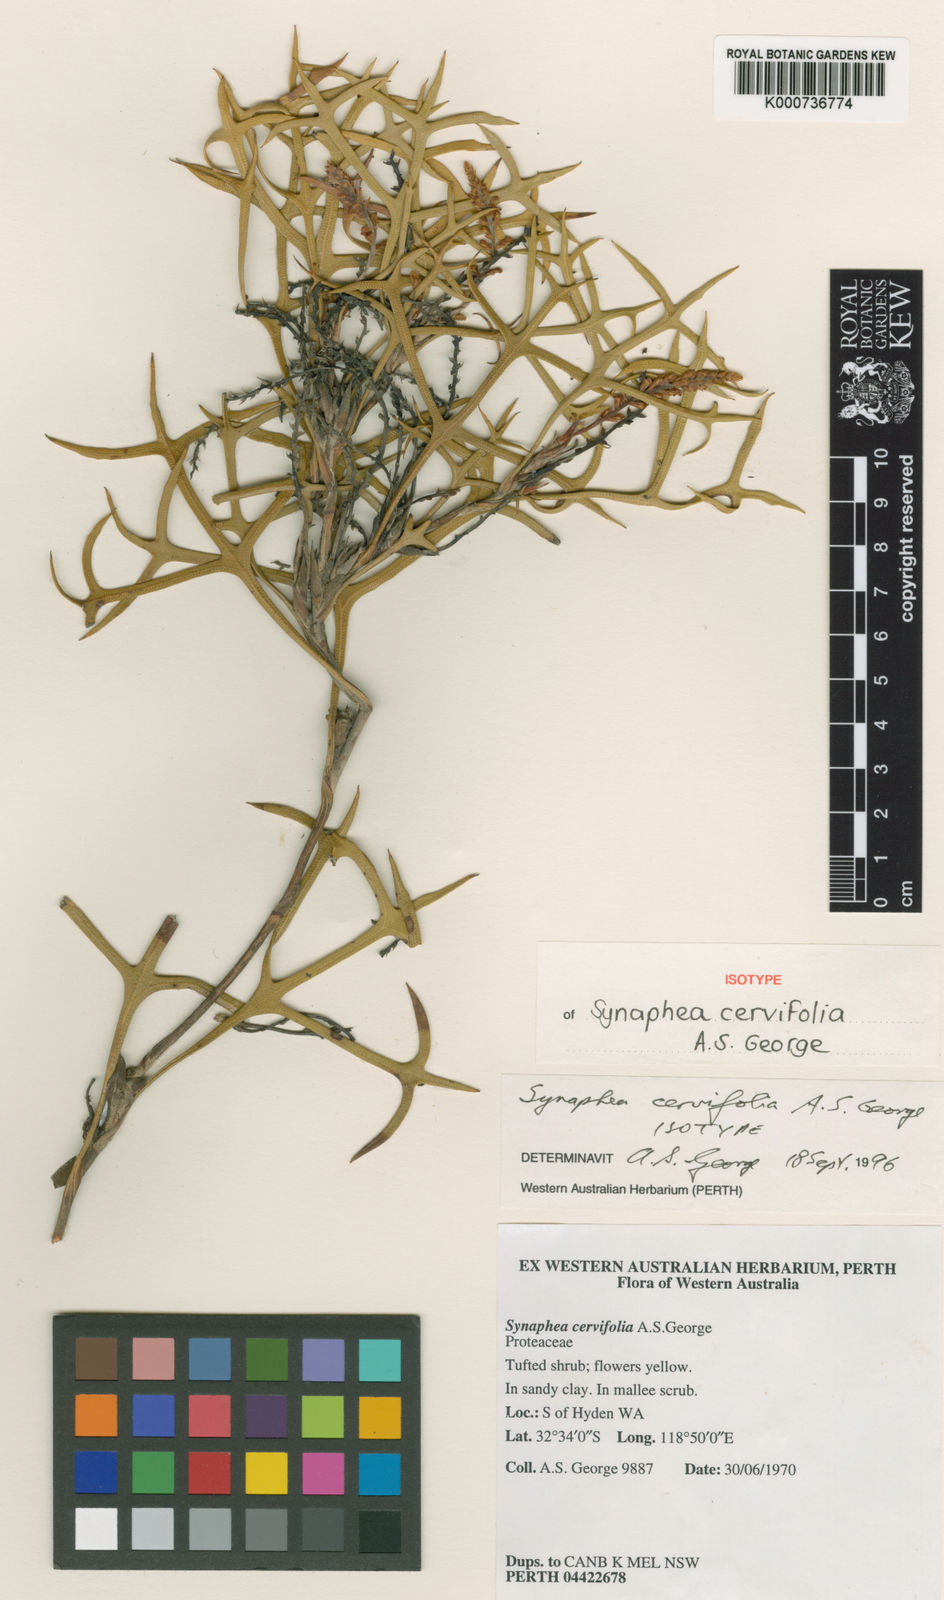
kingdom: Plantae
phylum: Tracheophyta
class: Magnoliopsida
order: Proteales
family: Proteaceae
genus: Synaphea
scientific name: Synaphea cervifolia
